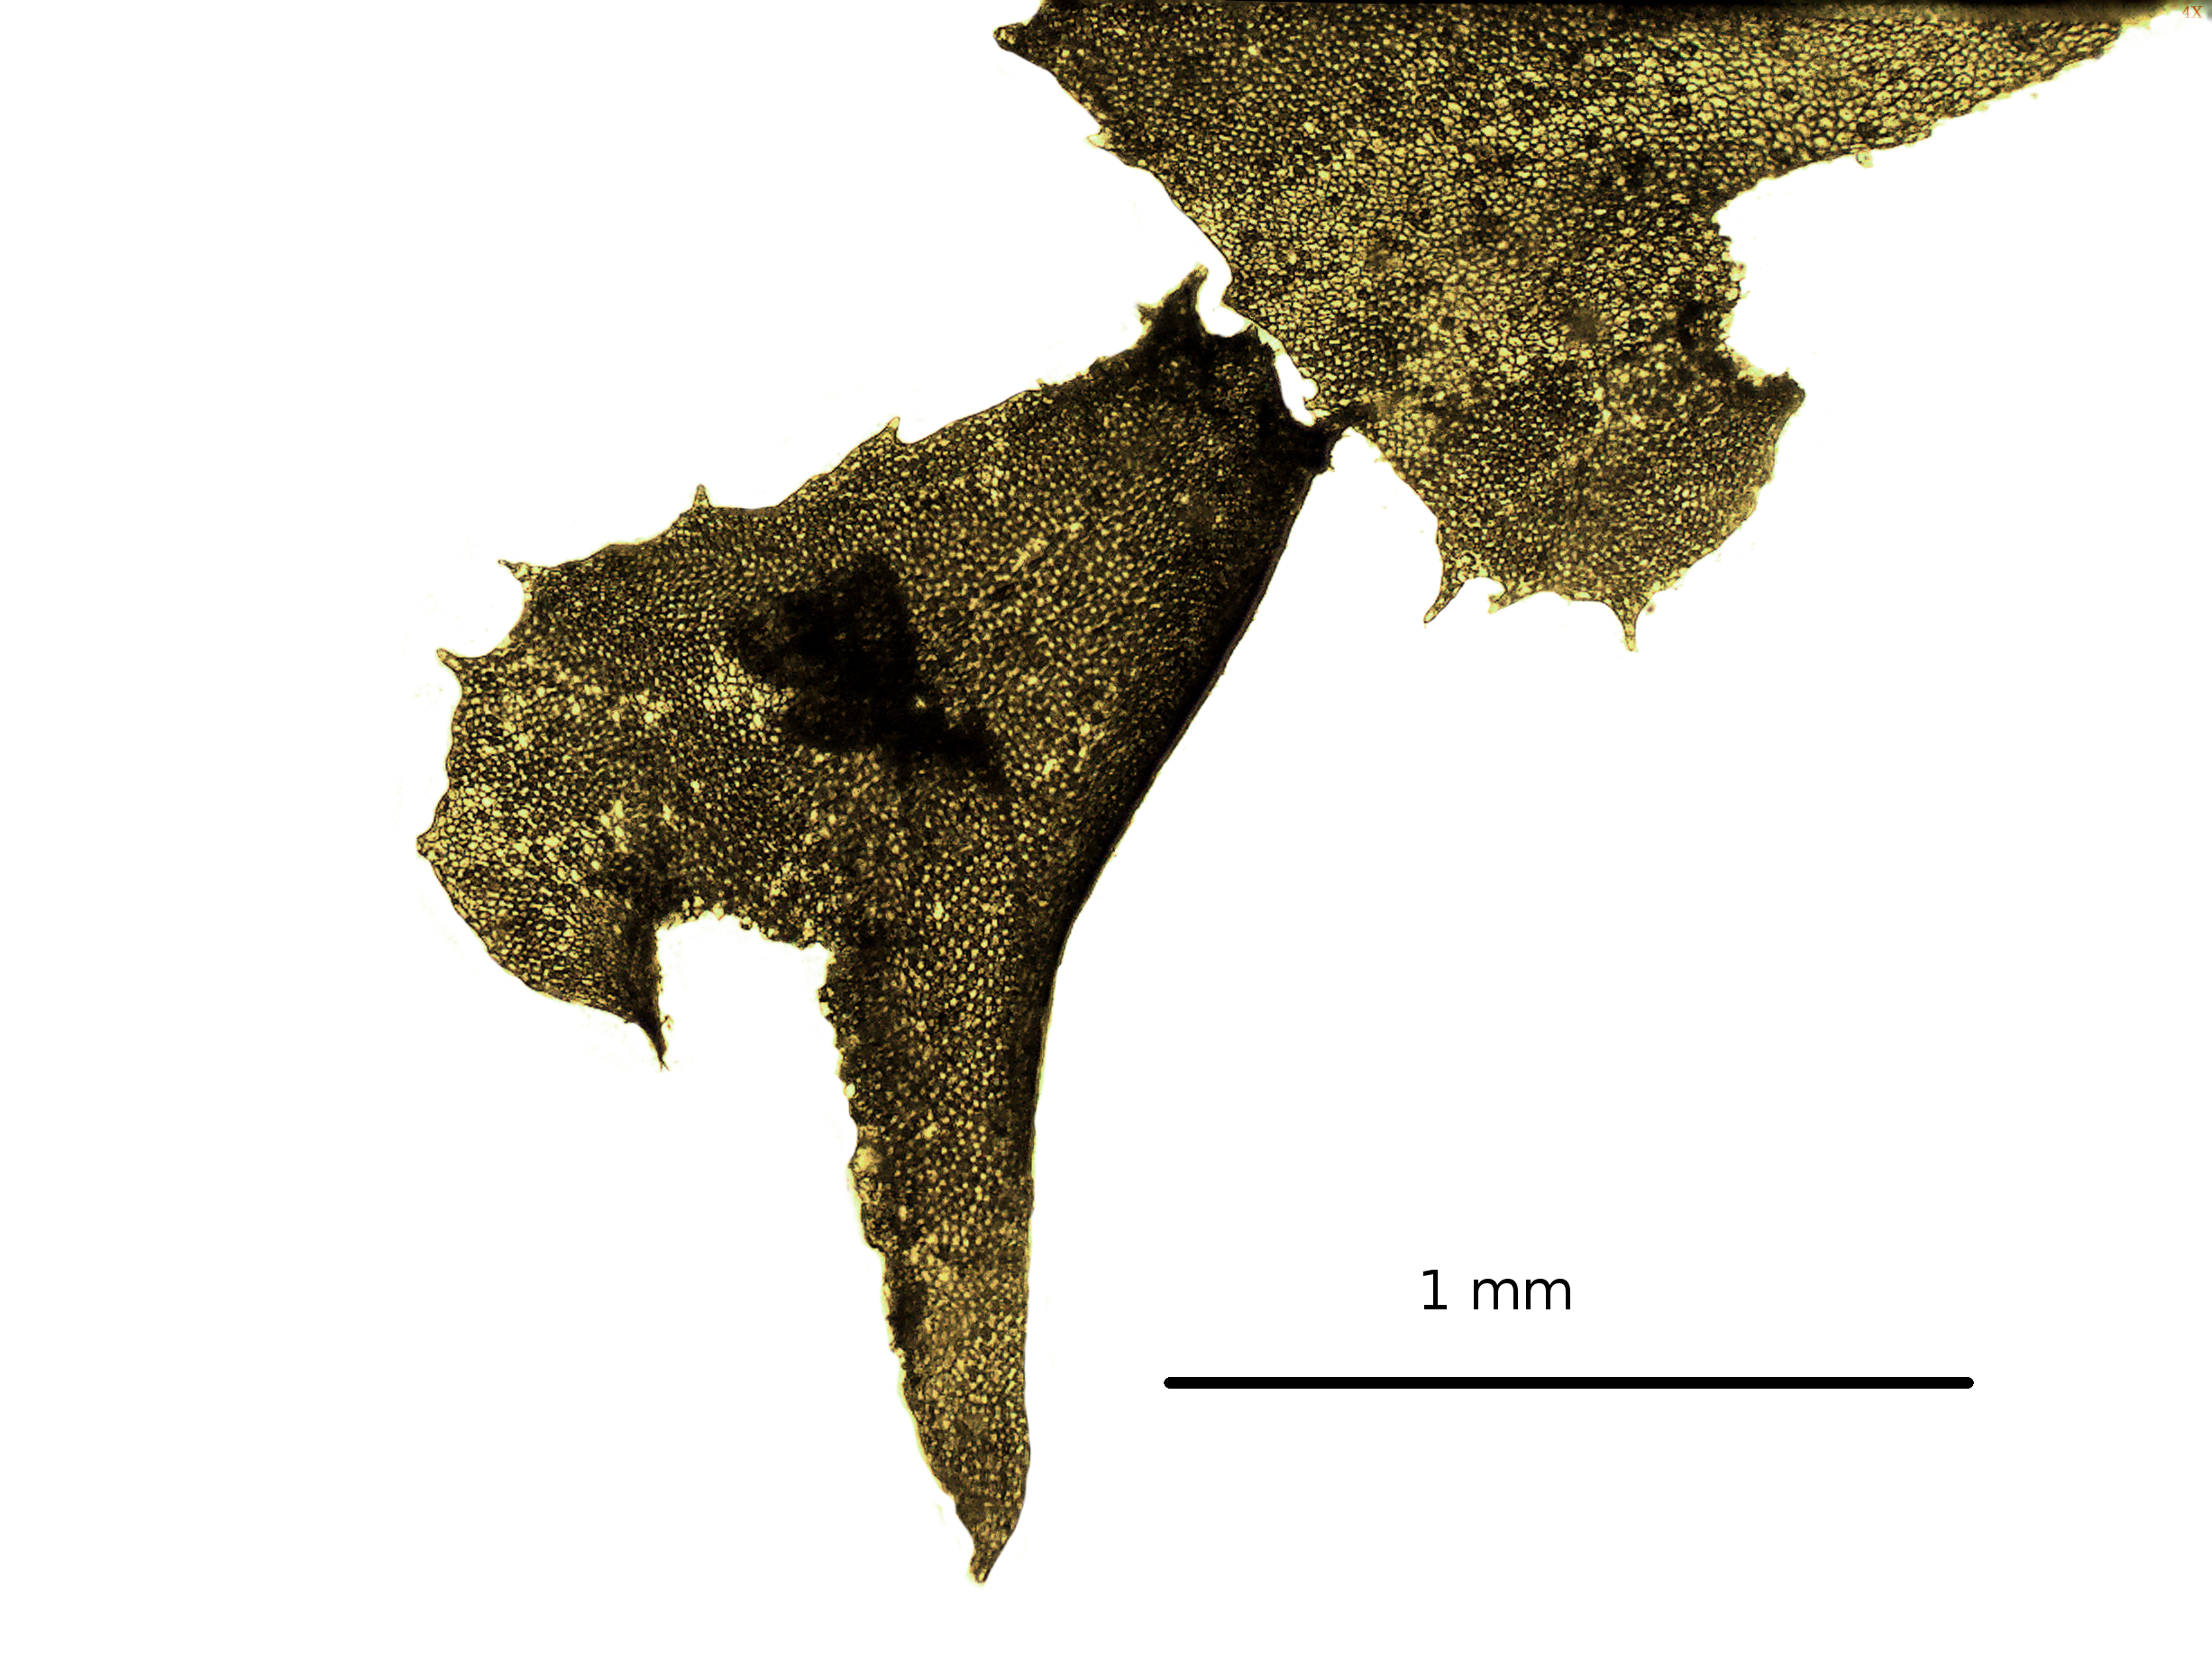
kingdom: Plantae
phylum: Marchantiophyta
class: Jungermanniopsida
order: Jungermanniales
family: Plagiochilaceae
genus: Plagiochila
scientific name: Plagiochila boivinii
